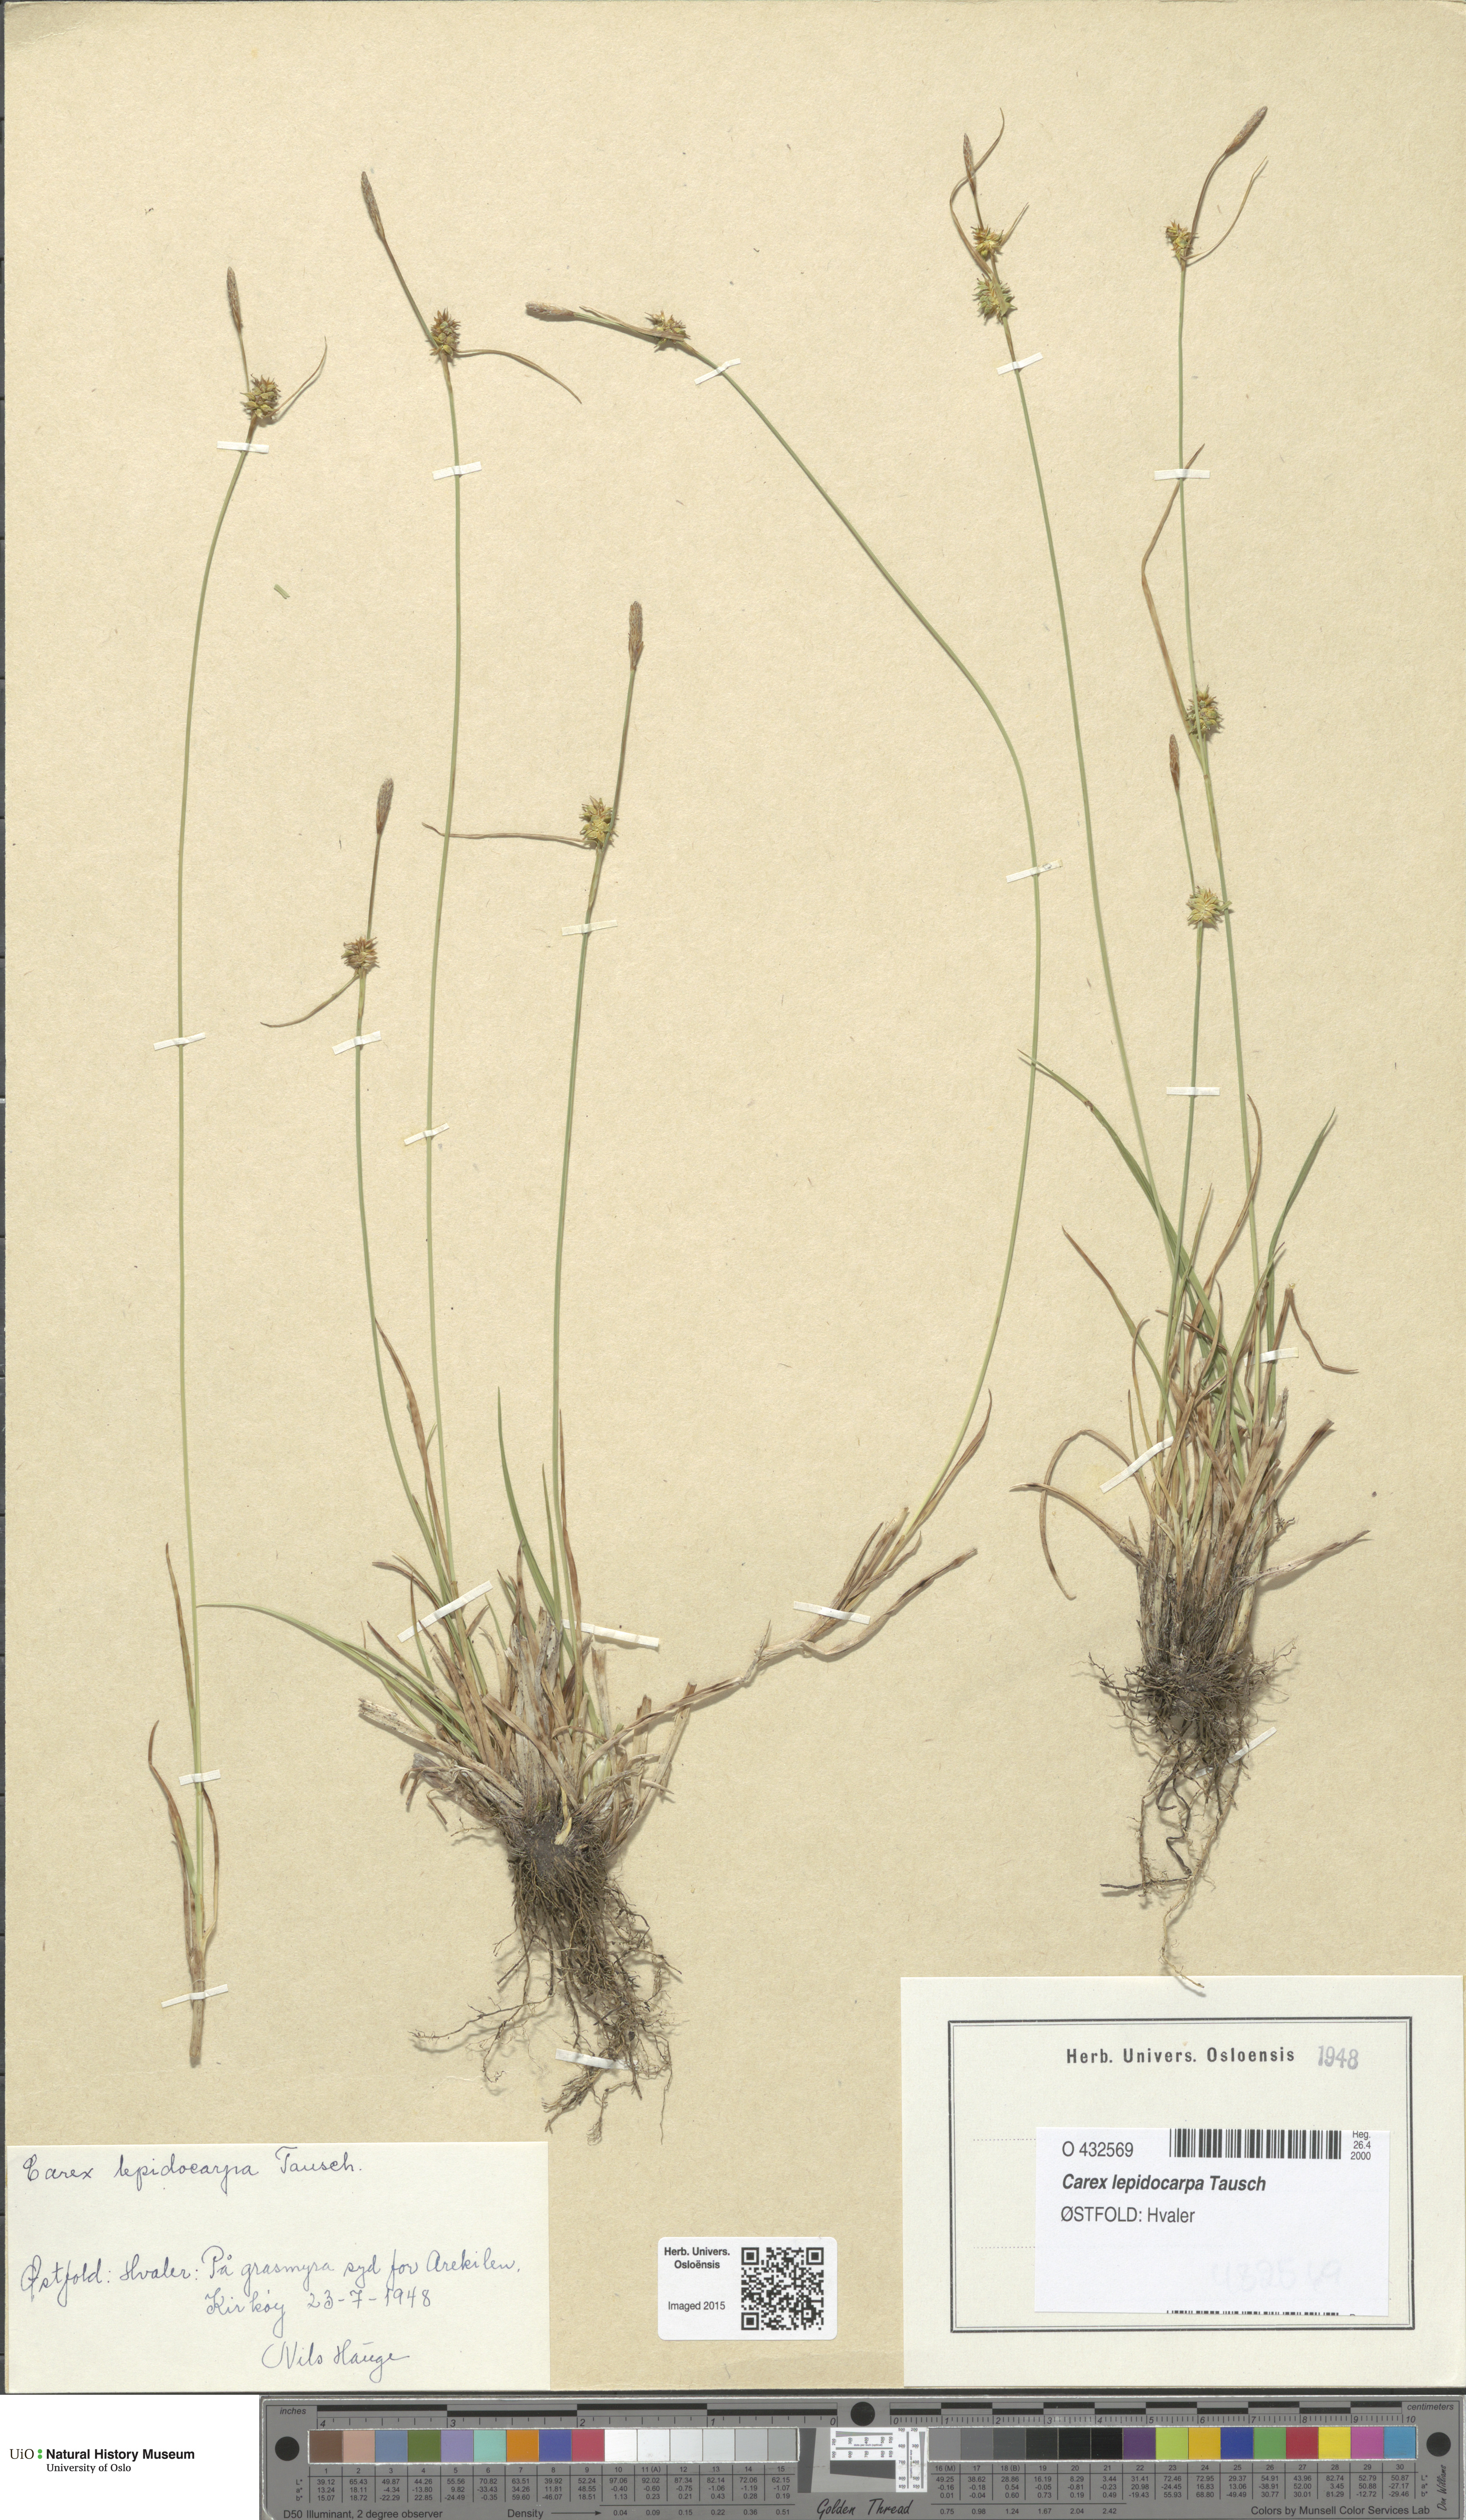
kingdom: Plantae
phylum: Tracheophyta
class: Liliopsida
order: Poales
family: Cyperaceae
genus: Carex
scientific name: Carex lepidocarpa
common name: Long-stalked yellow-sedge
